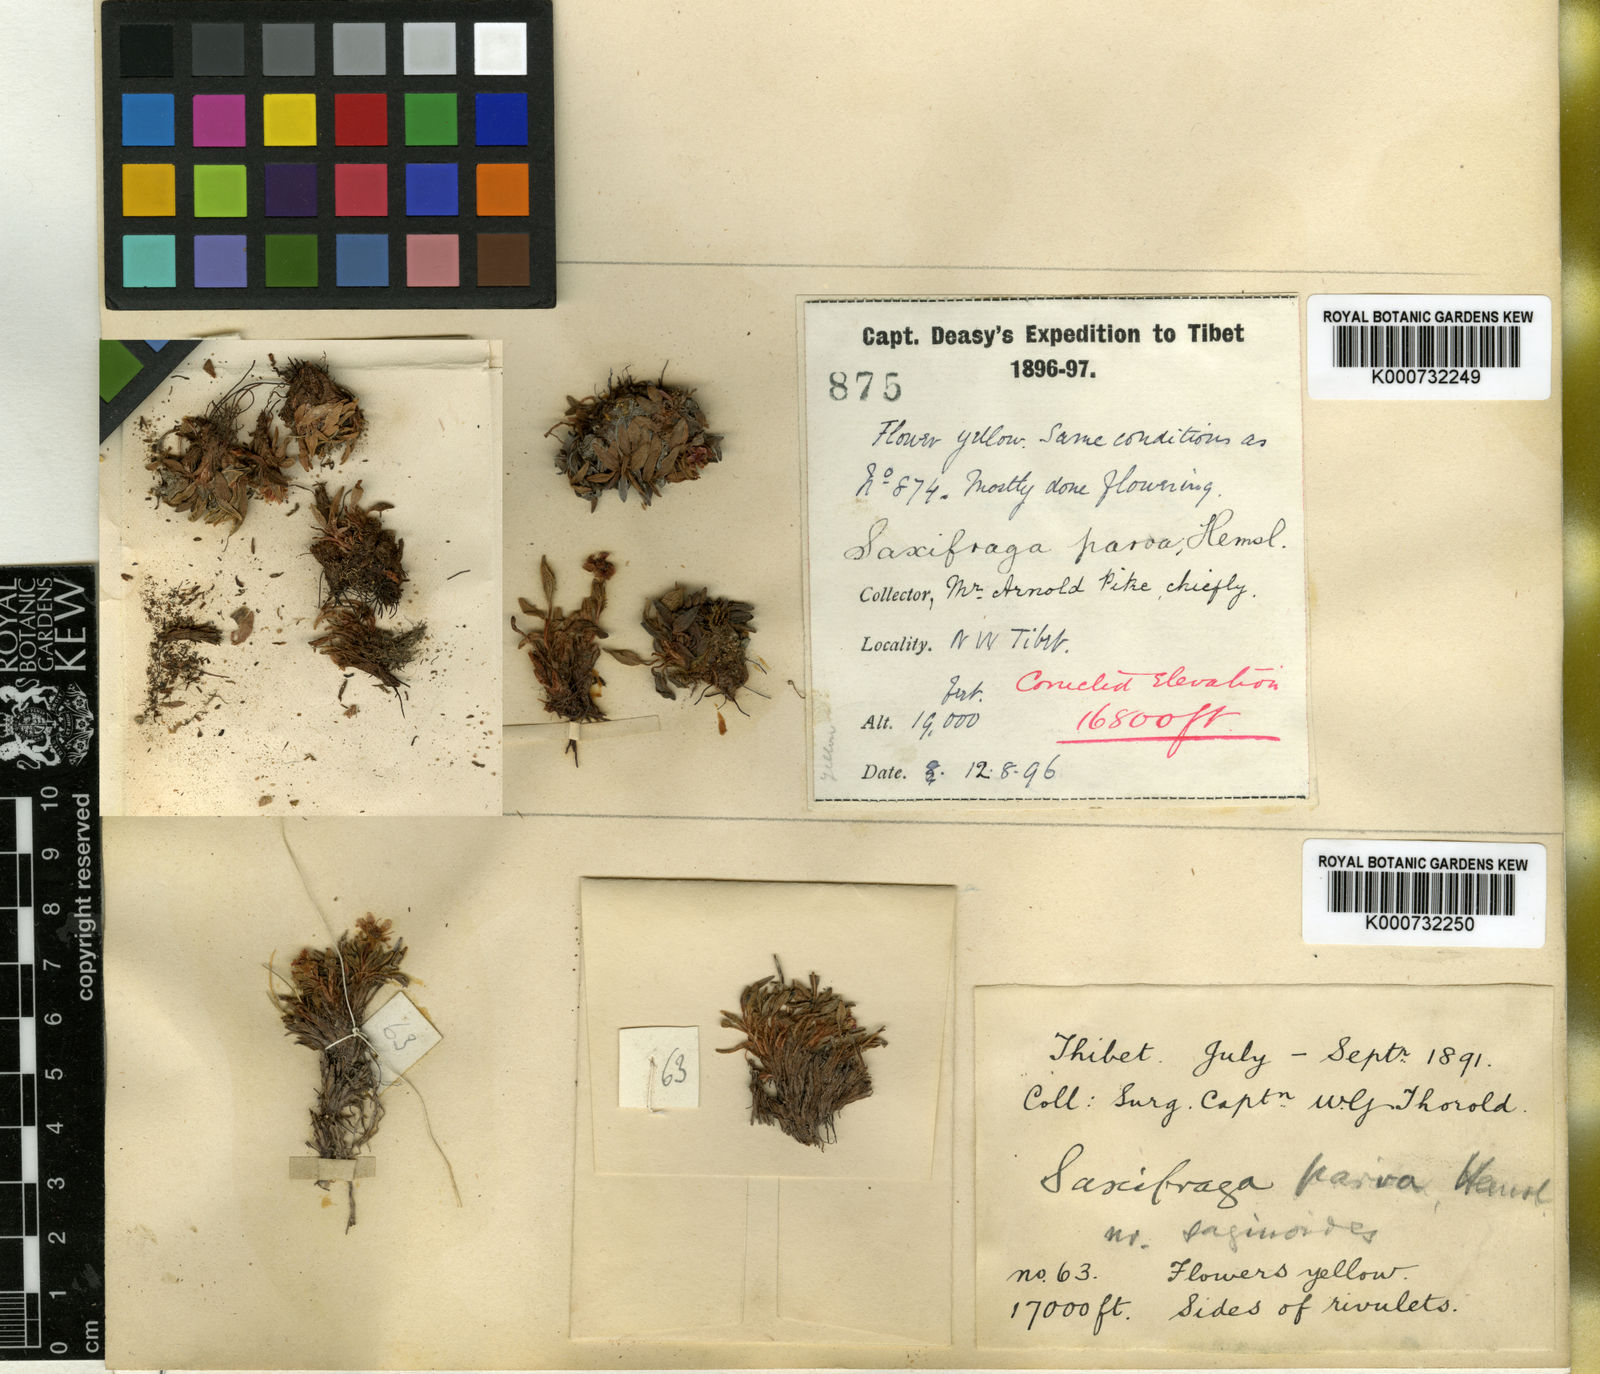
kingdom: Plantae
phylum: Tracheophyta
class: Magnoliopsida
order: Saxifragales
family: Saxifragaceae
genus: Saxifraga
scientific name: Saxifraga parva
